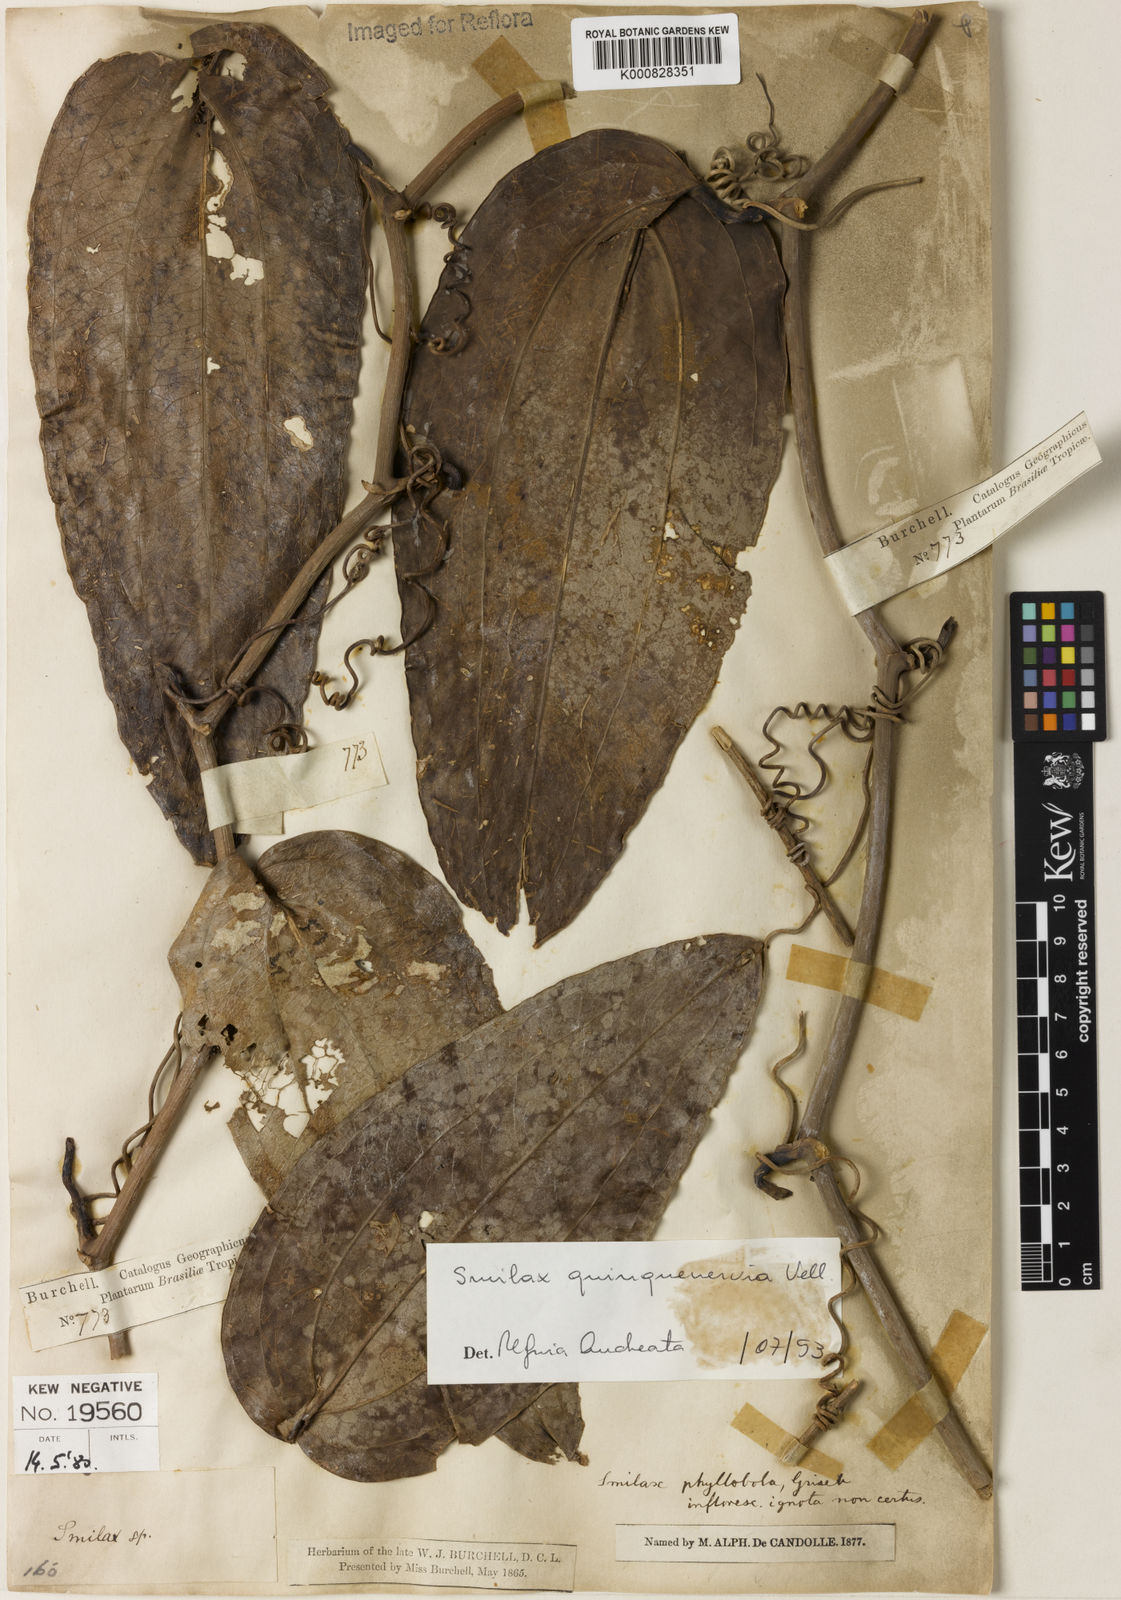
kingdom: Plantae
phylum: Tracheophyta
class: Liliopsida
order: Liliales
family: Smilacaceae
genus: Smilax
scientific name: Smilax quinquenervia
